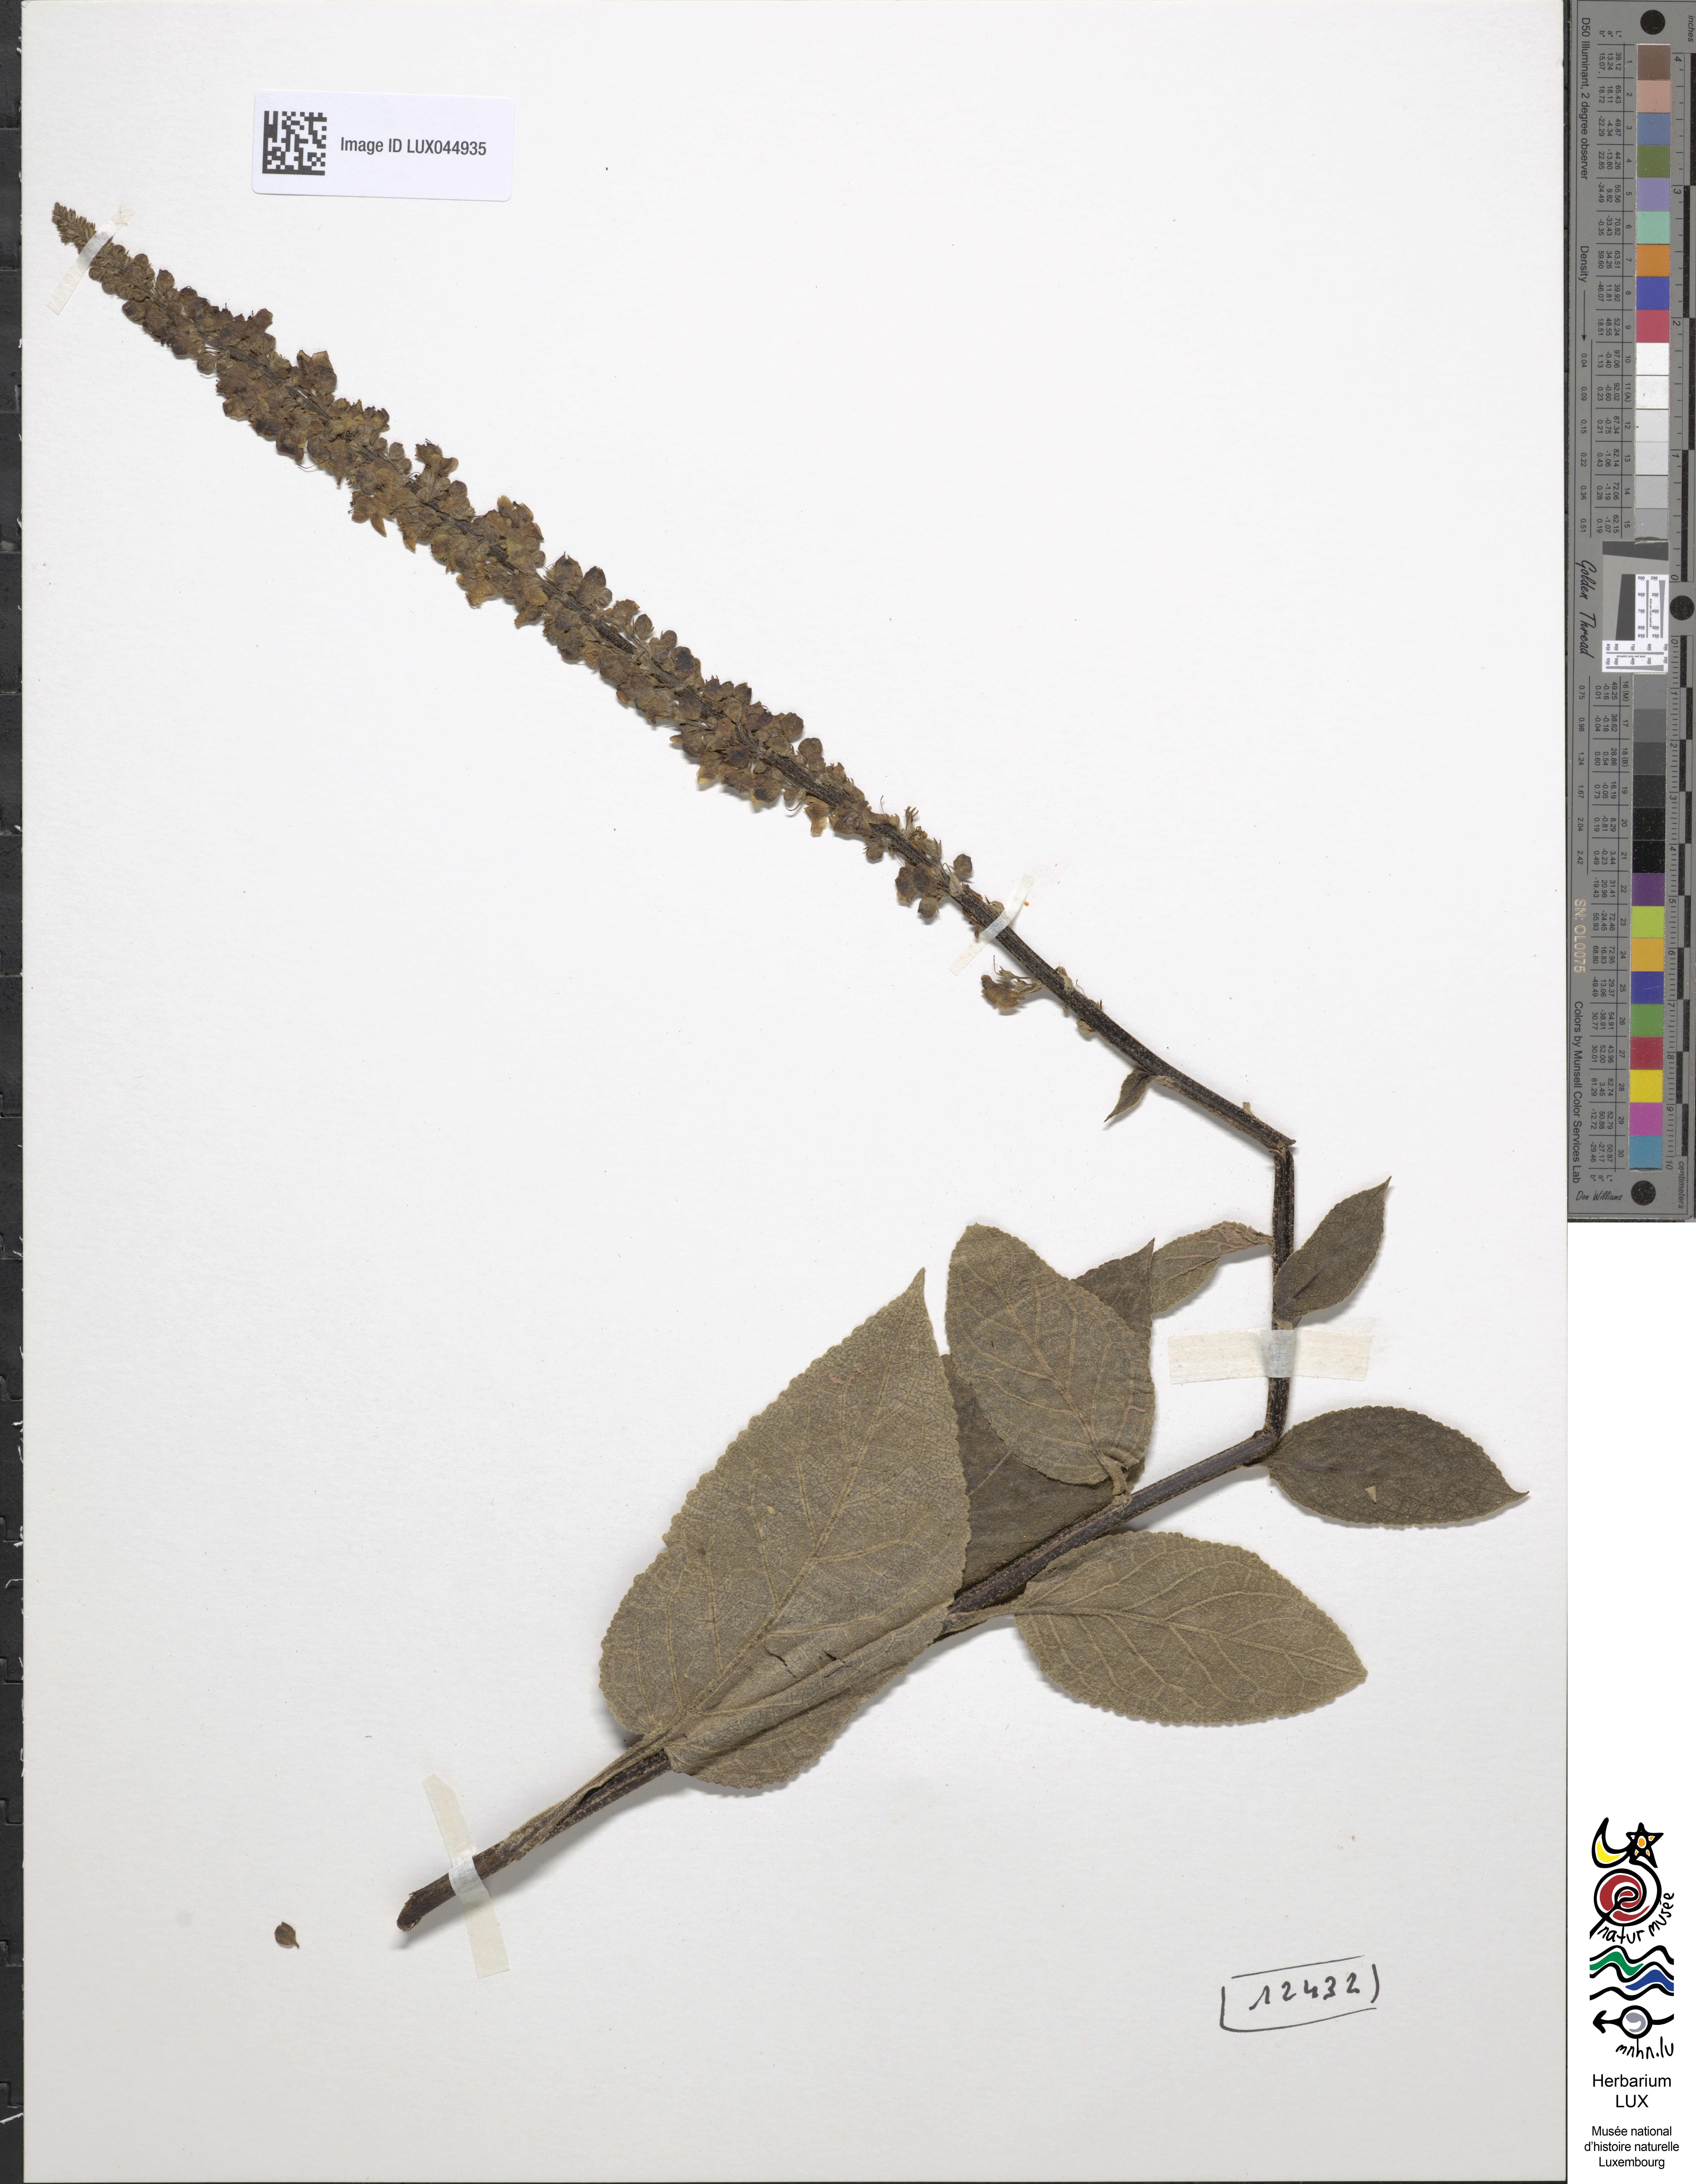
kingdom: Plantae
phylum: Tracheophyta
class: Magnoliopsida
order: Lamiales
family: Scrophulariaceae
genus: Verbascum
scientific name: Verbascum nigrum
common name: Dark mullein
